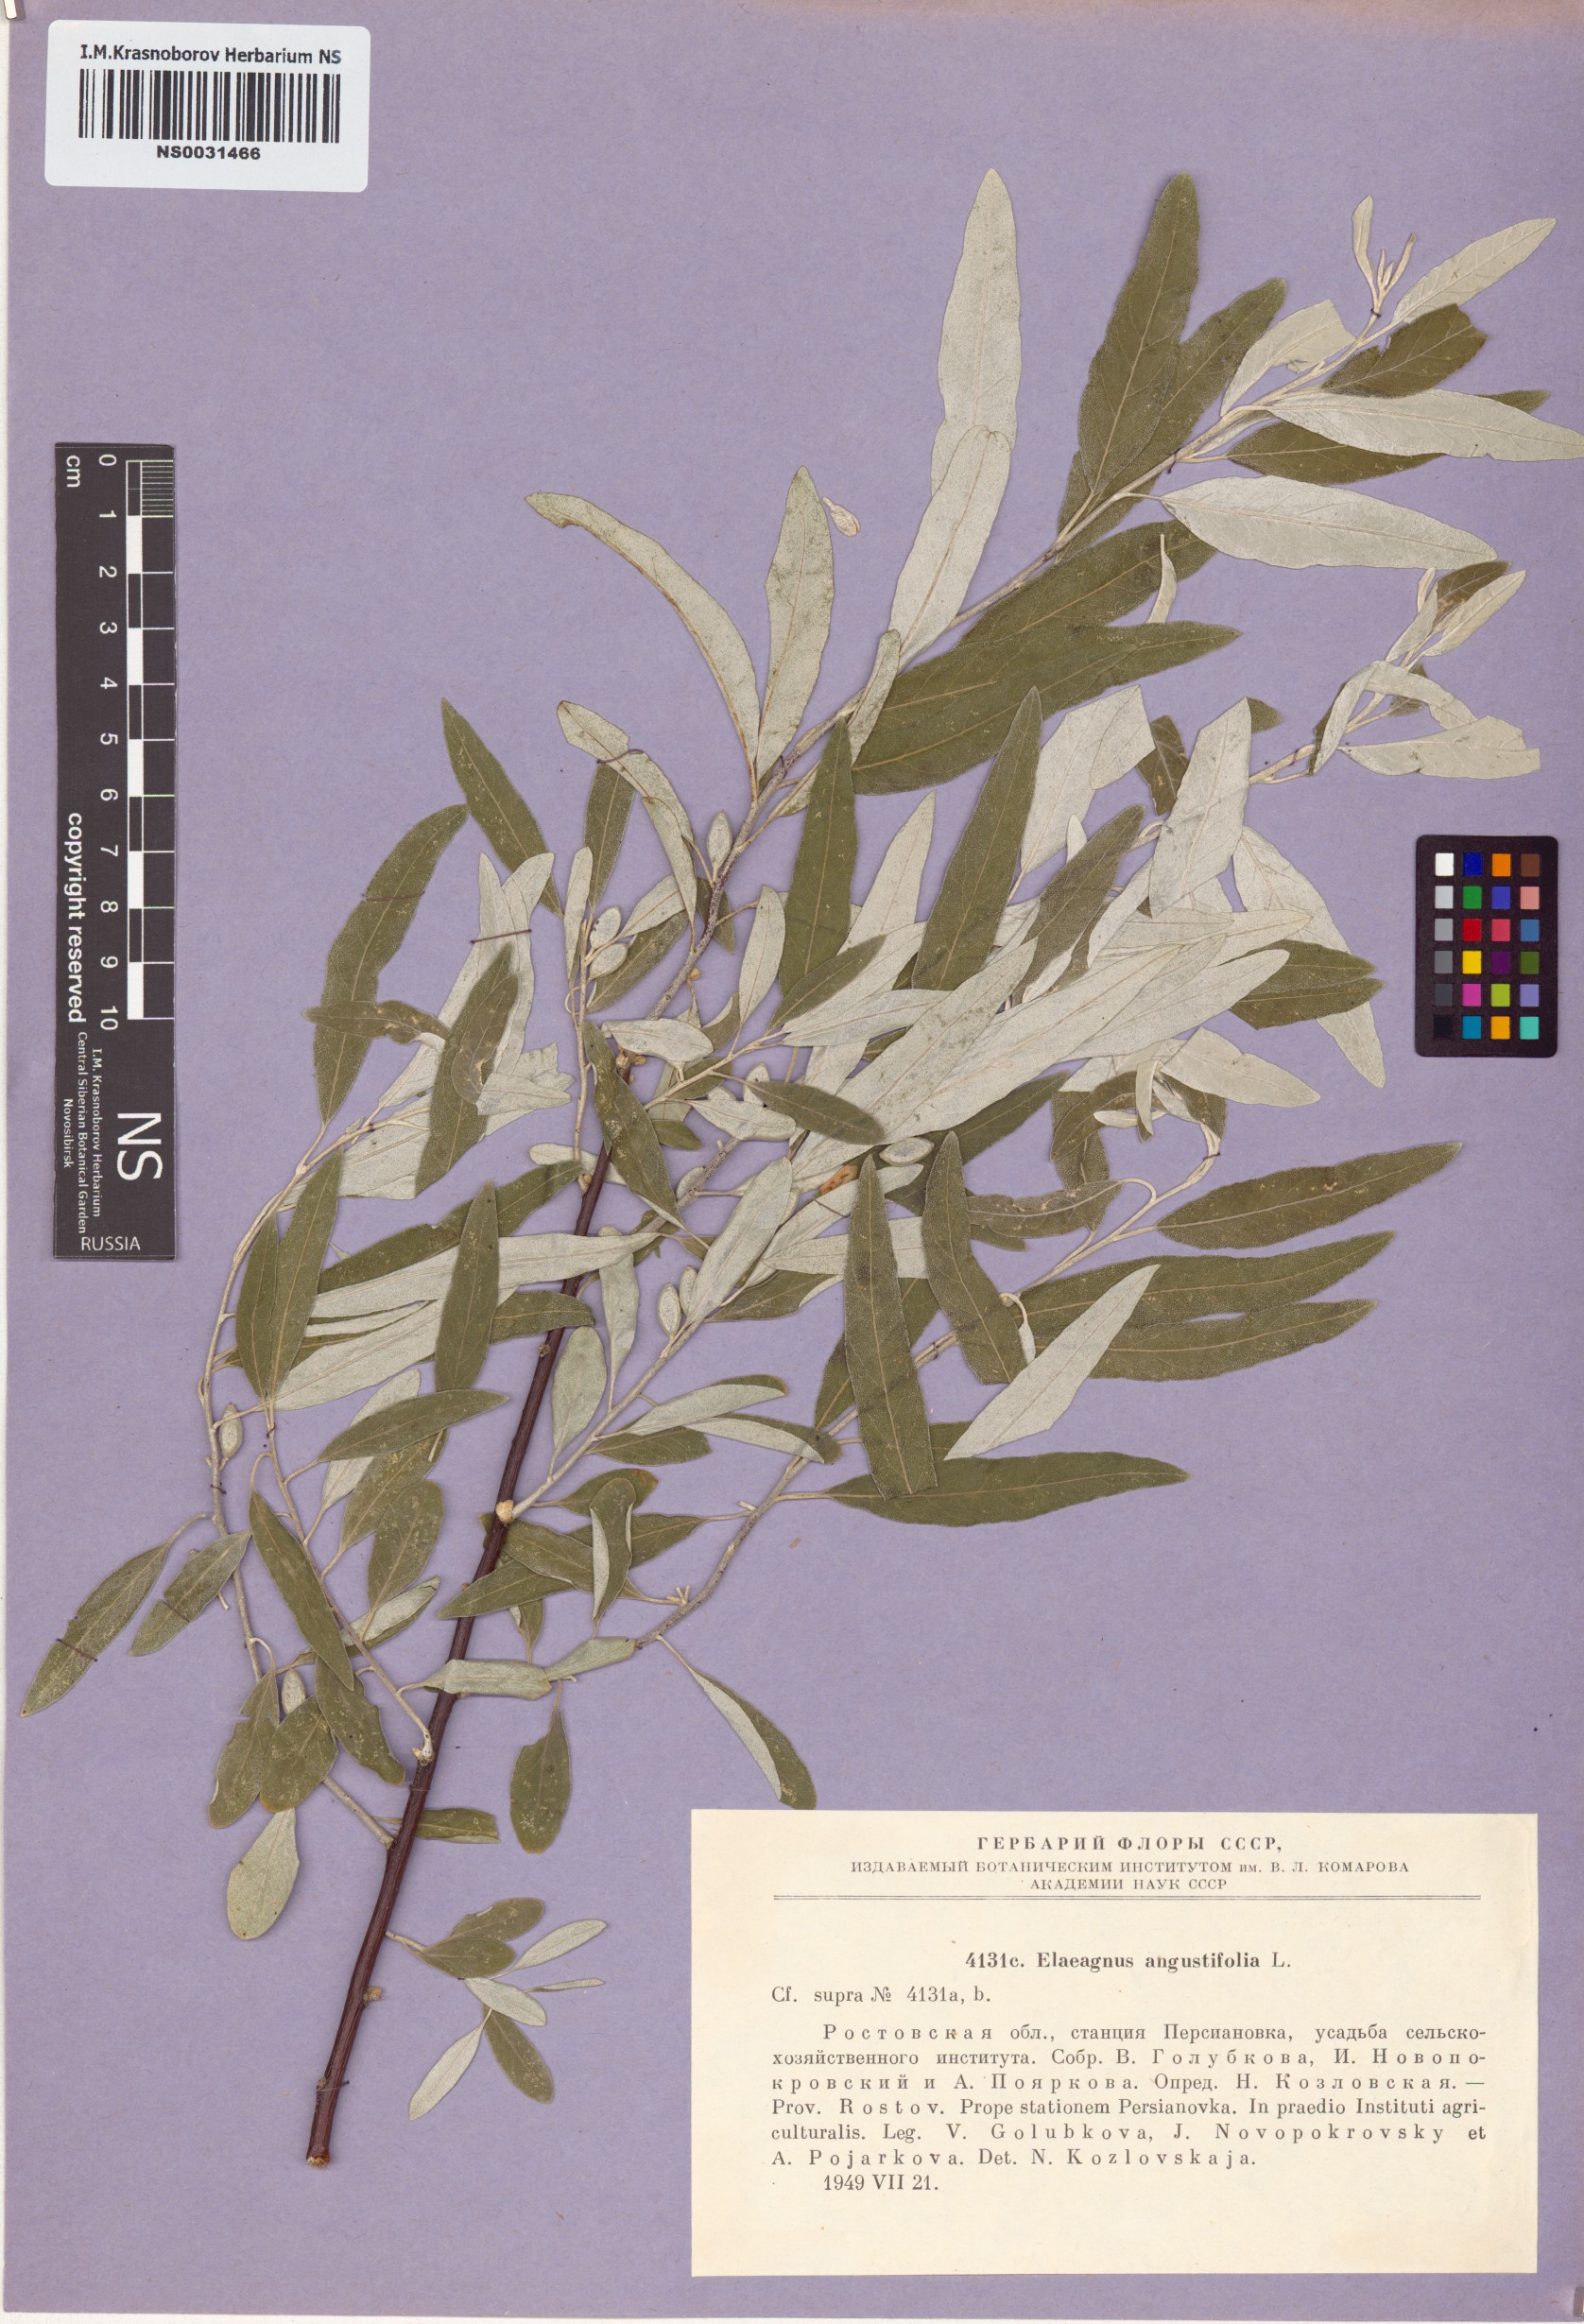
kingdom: Plantae
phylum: Tracheophyta
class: Magnoliopsida
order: Rosales
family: Elaeagnaceae
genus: Elaeagnus
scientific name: Elaeagnus angustifolia
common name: Russian olive
